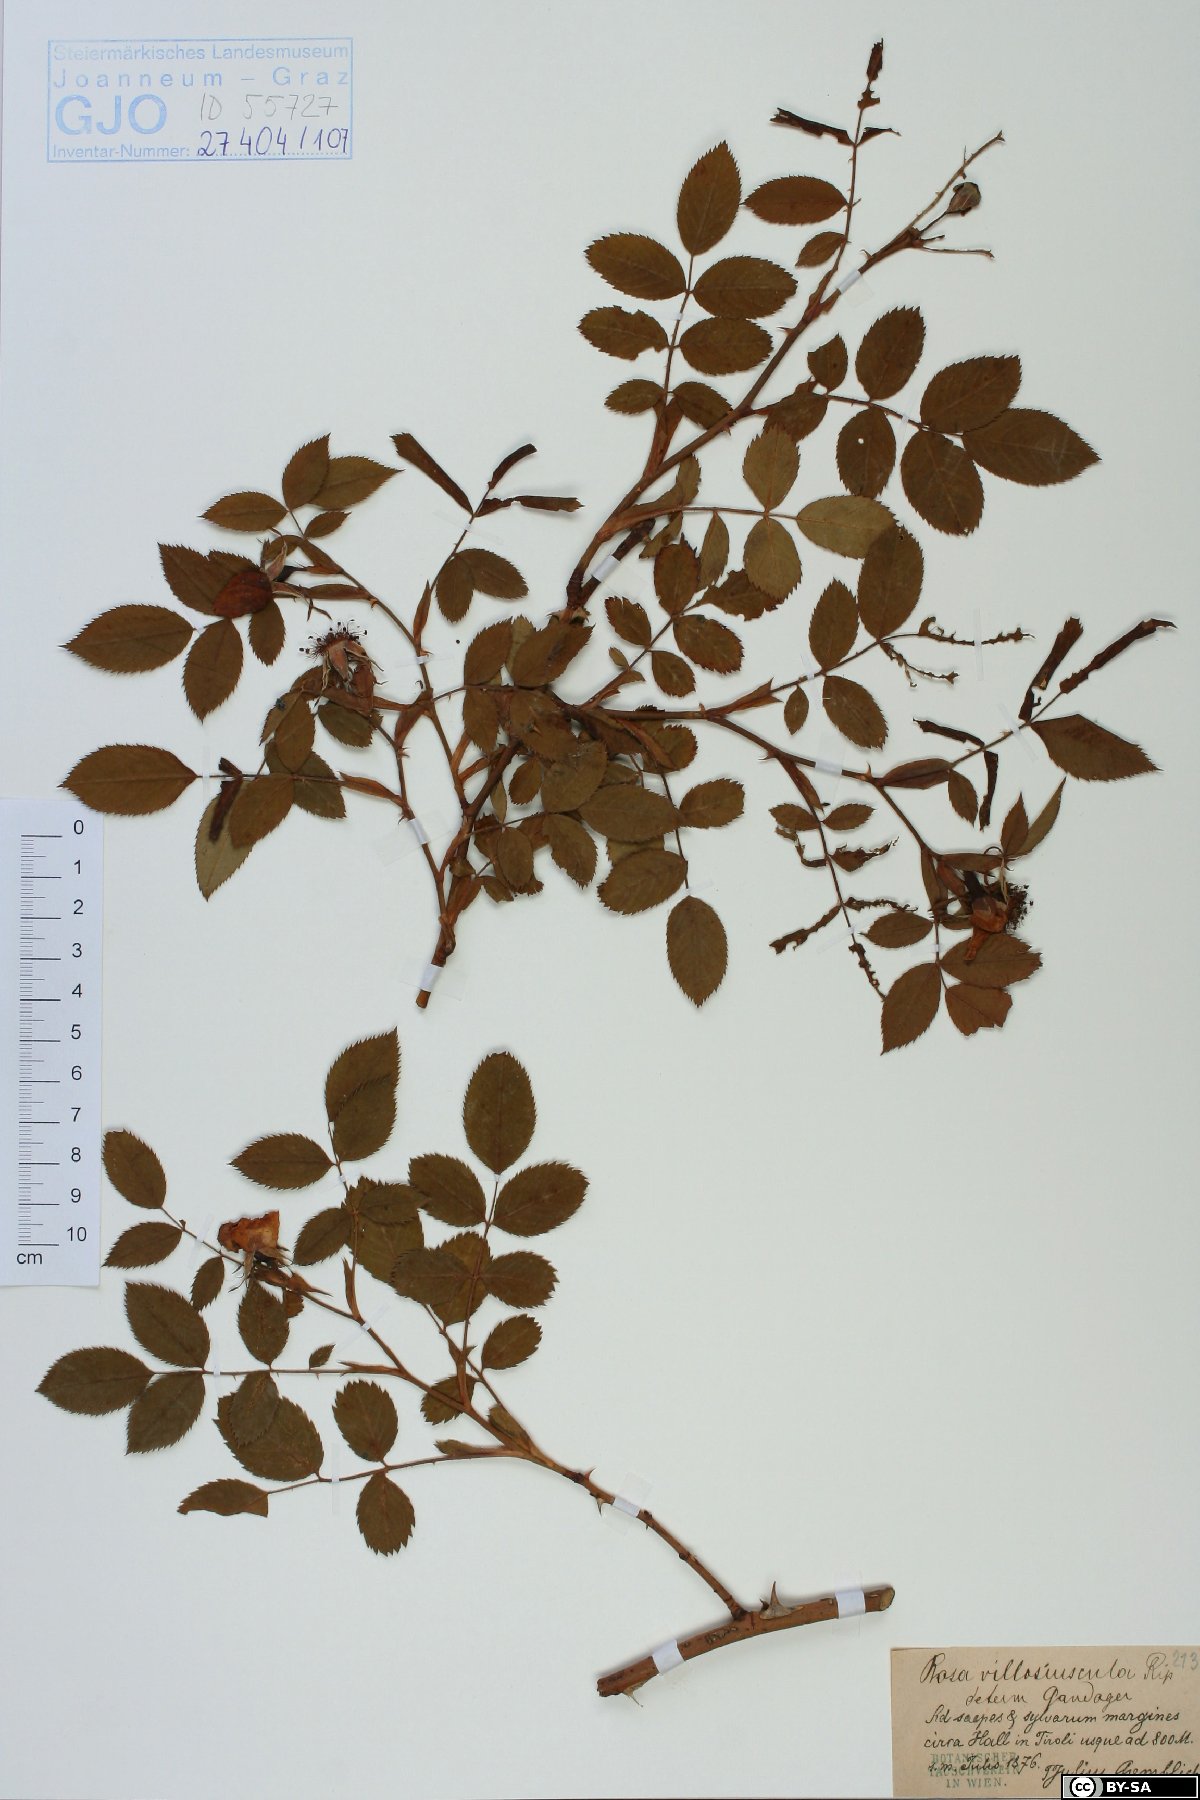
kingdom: Plantae
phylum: Tracheophyta
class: Magnoliopsida
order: Rosales
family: Rosaceae
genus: Rosa
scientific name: Rosa canina
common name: Dog rose
